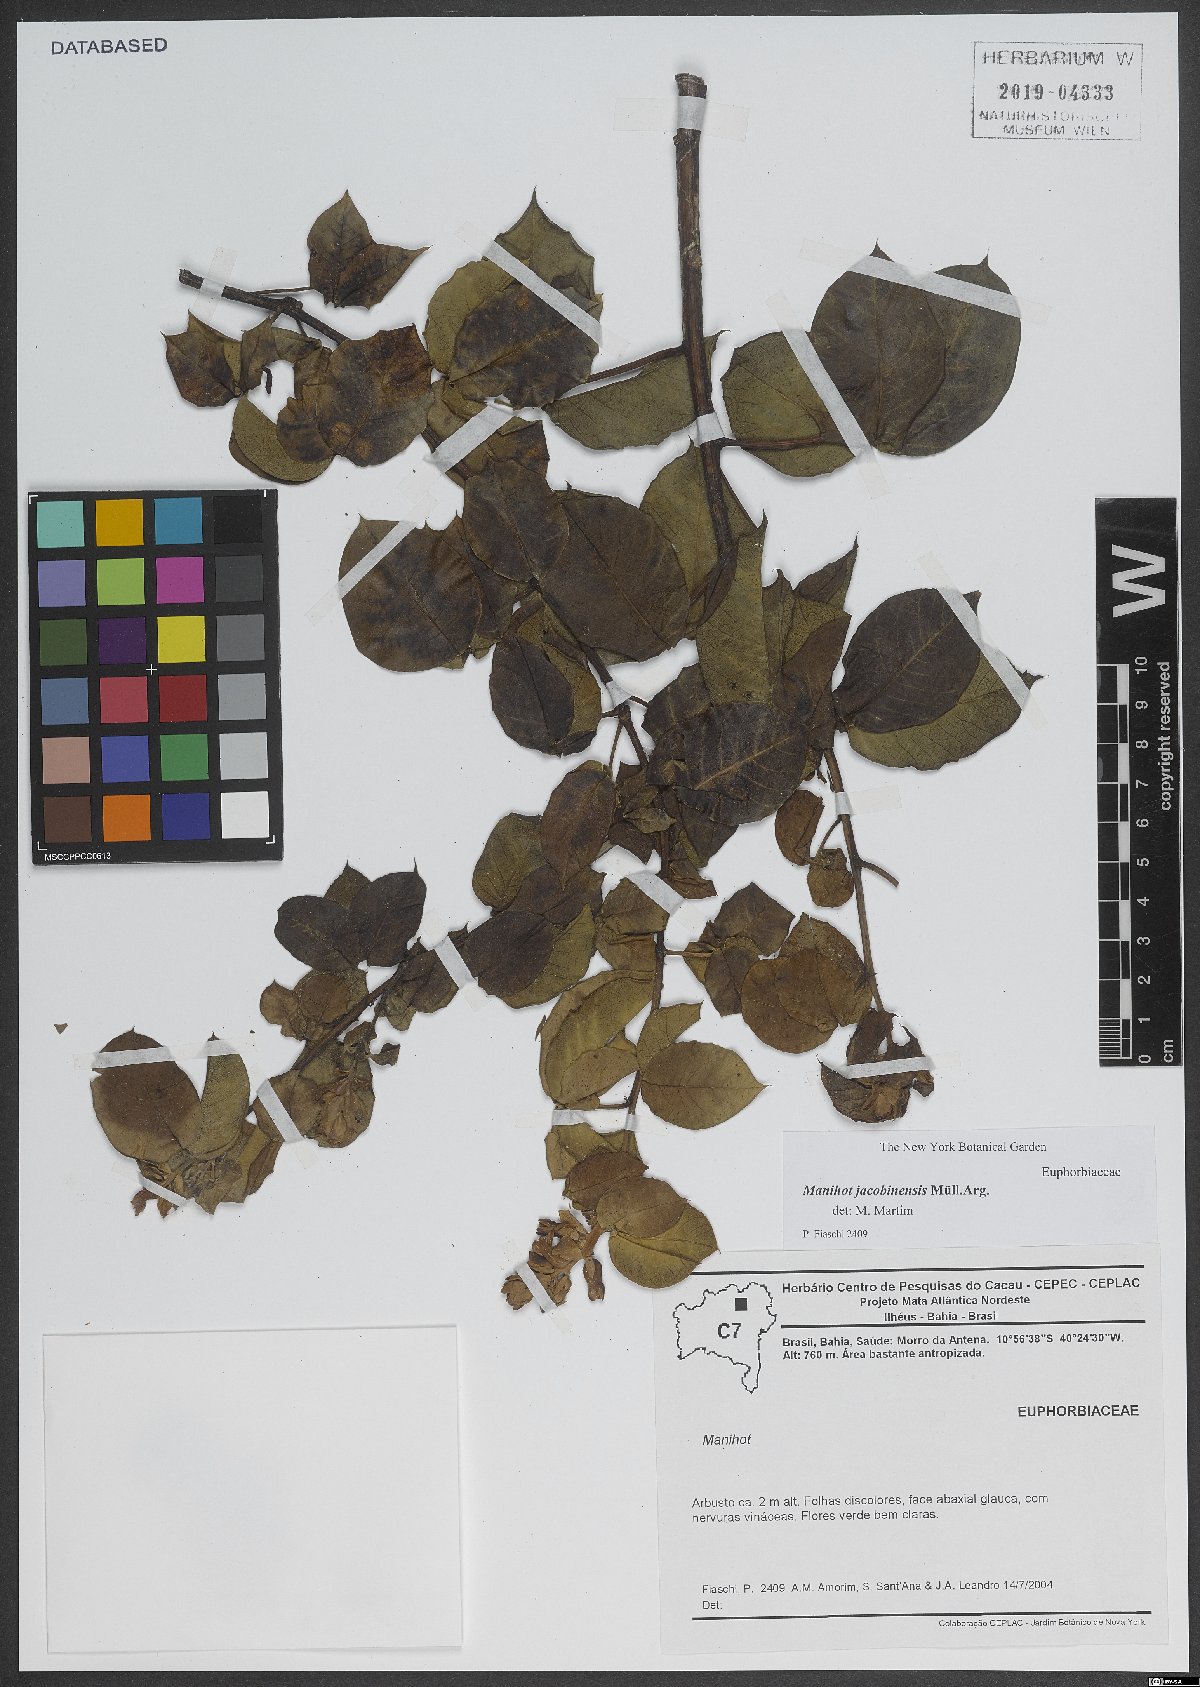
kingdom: Plantae
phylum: Tracheophyta
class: Magnoliopsida
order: Malpighiales
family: Euphorbiaceae
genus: Manihot
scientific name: Manihot jacobinensis
